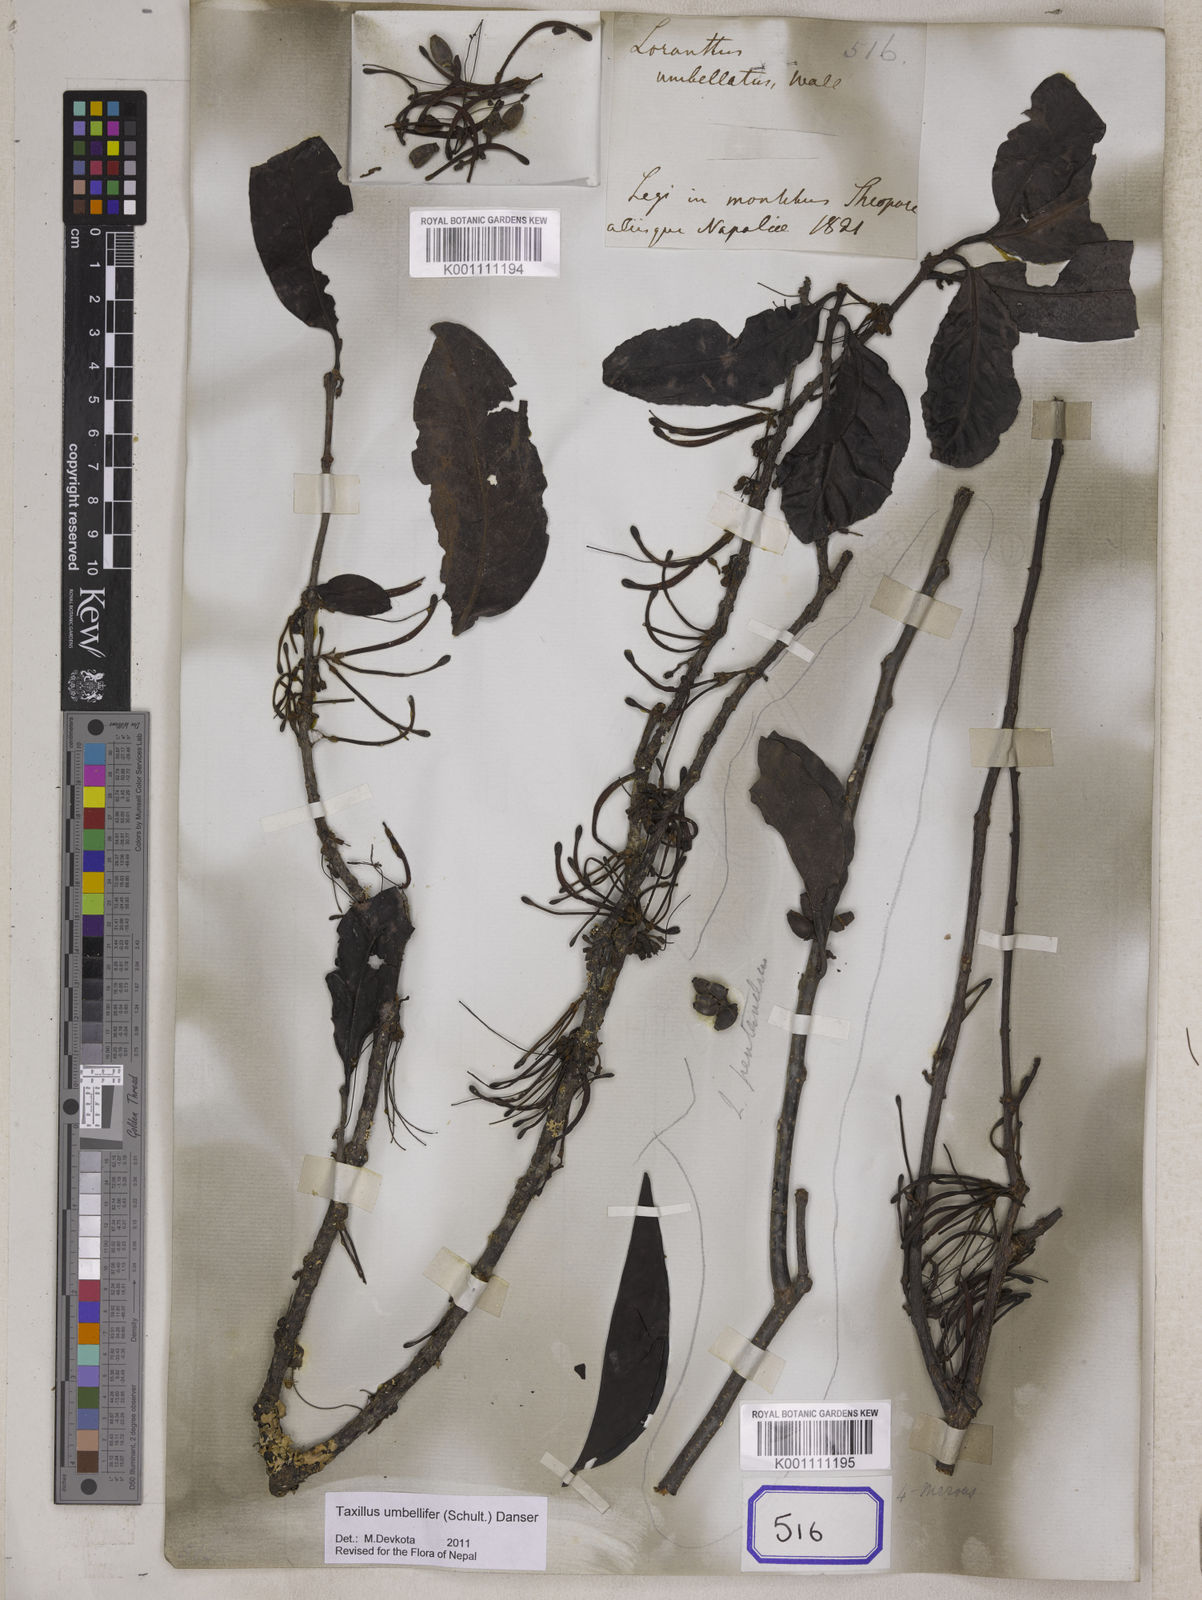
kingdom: Plantae
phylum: Tracheophyta
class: Magnoliopsida
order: Santalales
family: Loranthaceae
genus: Taxillus
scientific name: Taxillus umbellifer
